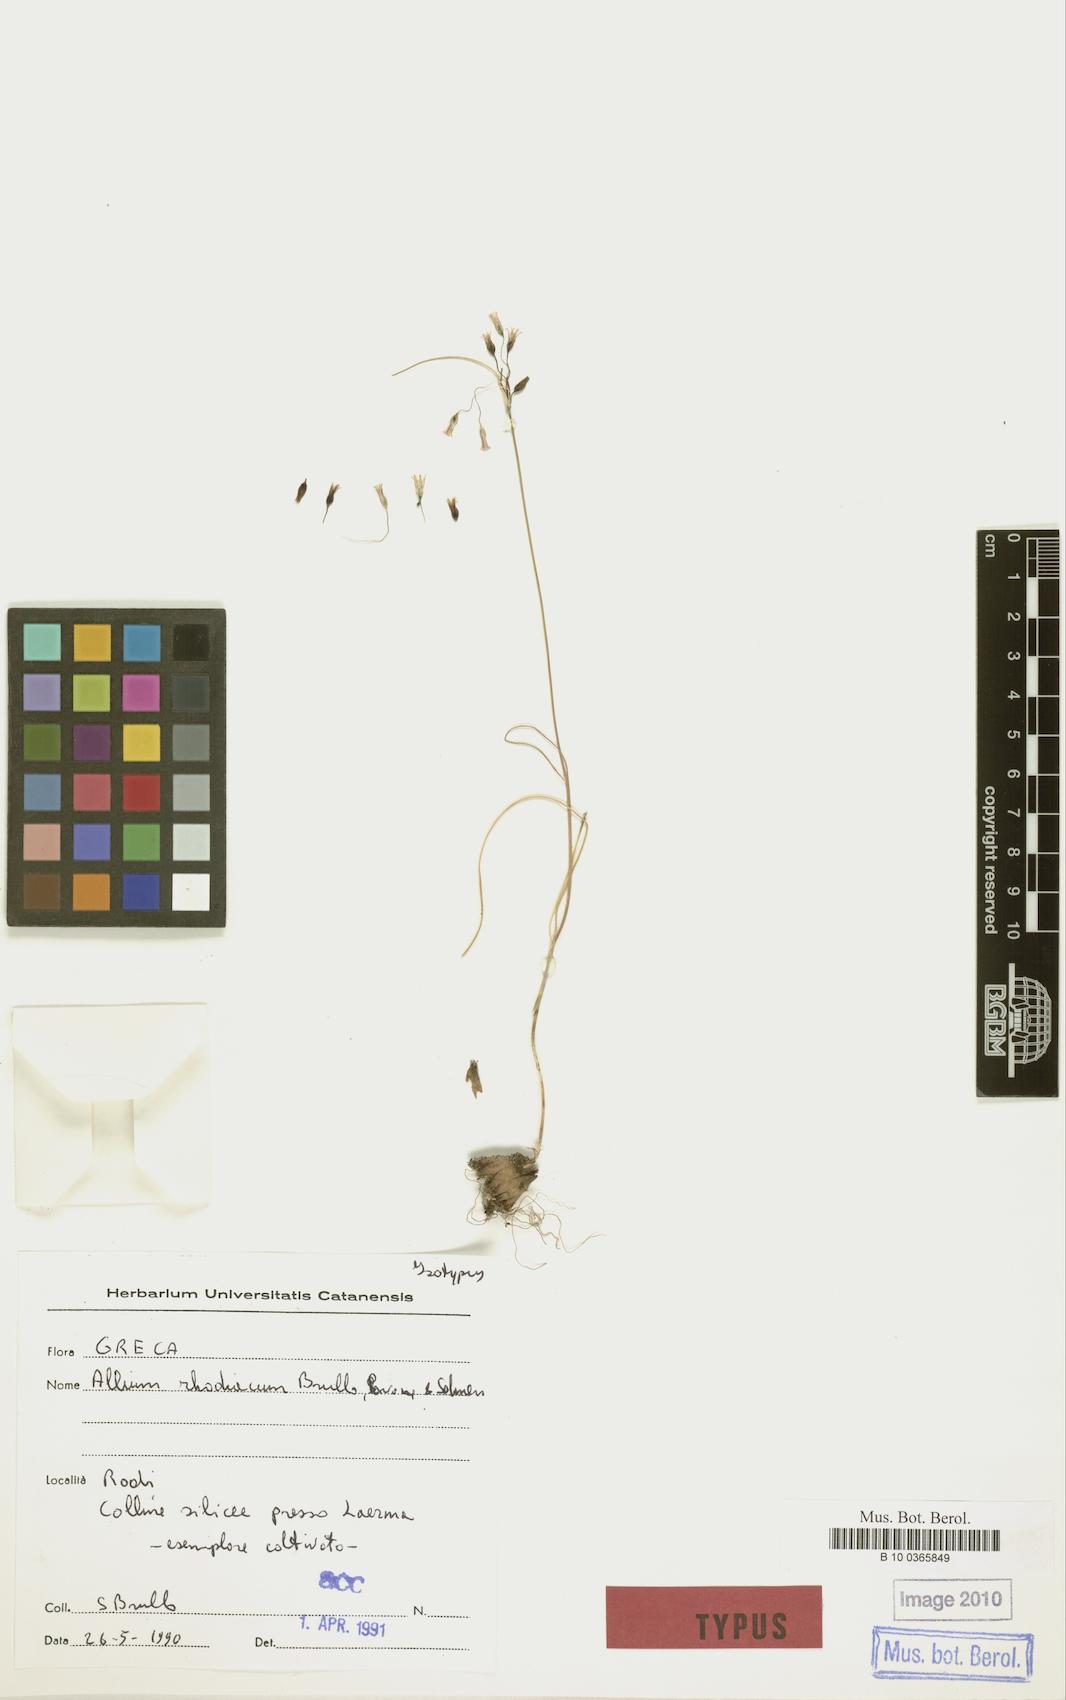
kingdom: Plantae
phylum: Tracheophyta
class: Liliopsida
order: Asparagales
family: Amaryllidaceae
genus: Allium
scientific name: Allium rhodiacum
